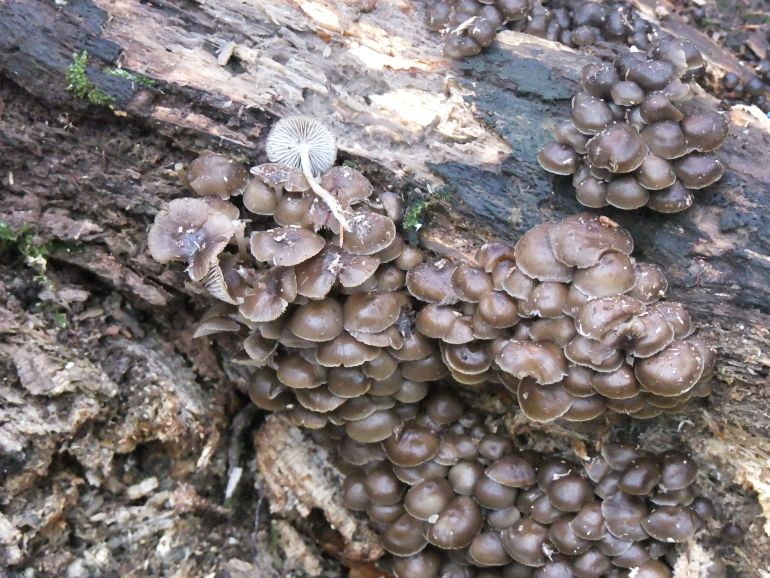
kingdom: Fungi
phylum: Basidiomycota
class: Agaricomycetes
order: Agaricales
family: Mycenaceae
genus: Mycena
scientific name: Mycena tintinnabulum
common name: vinter-huesvamp
